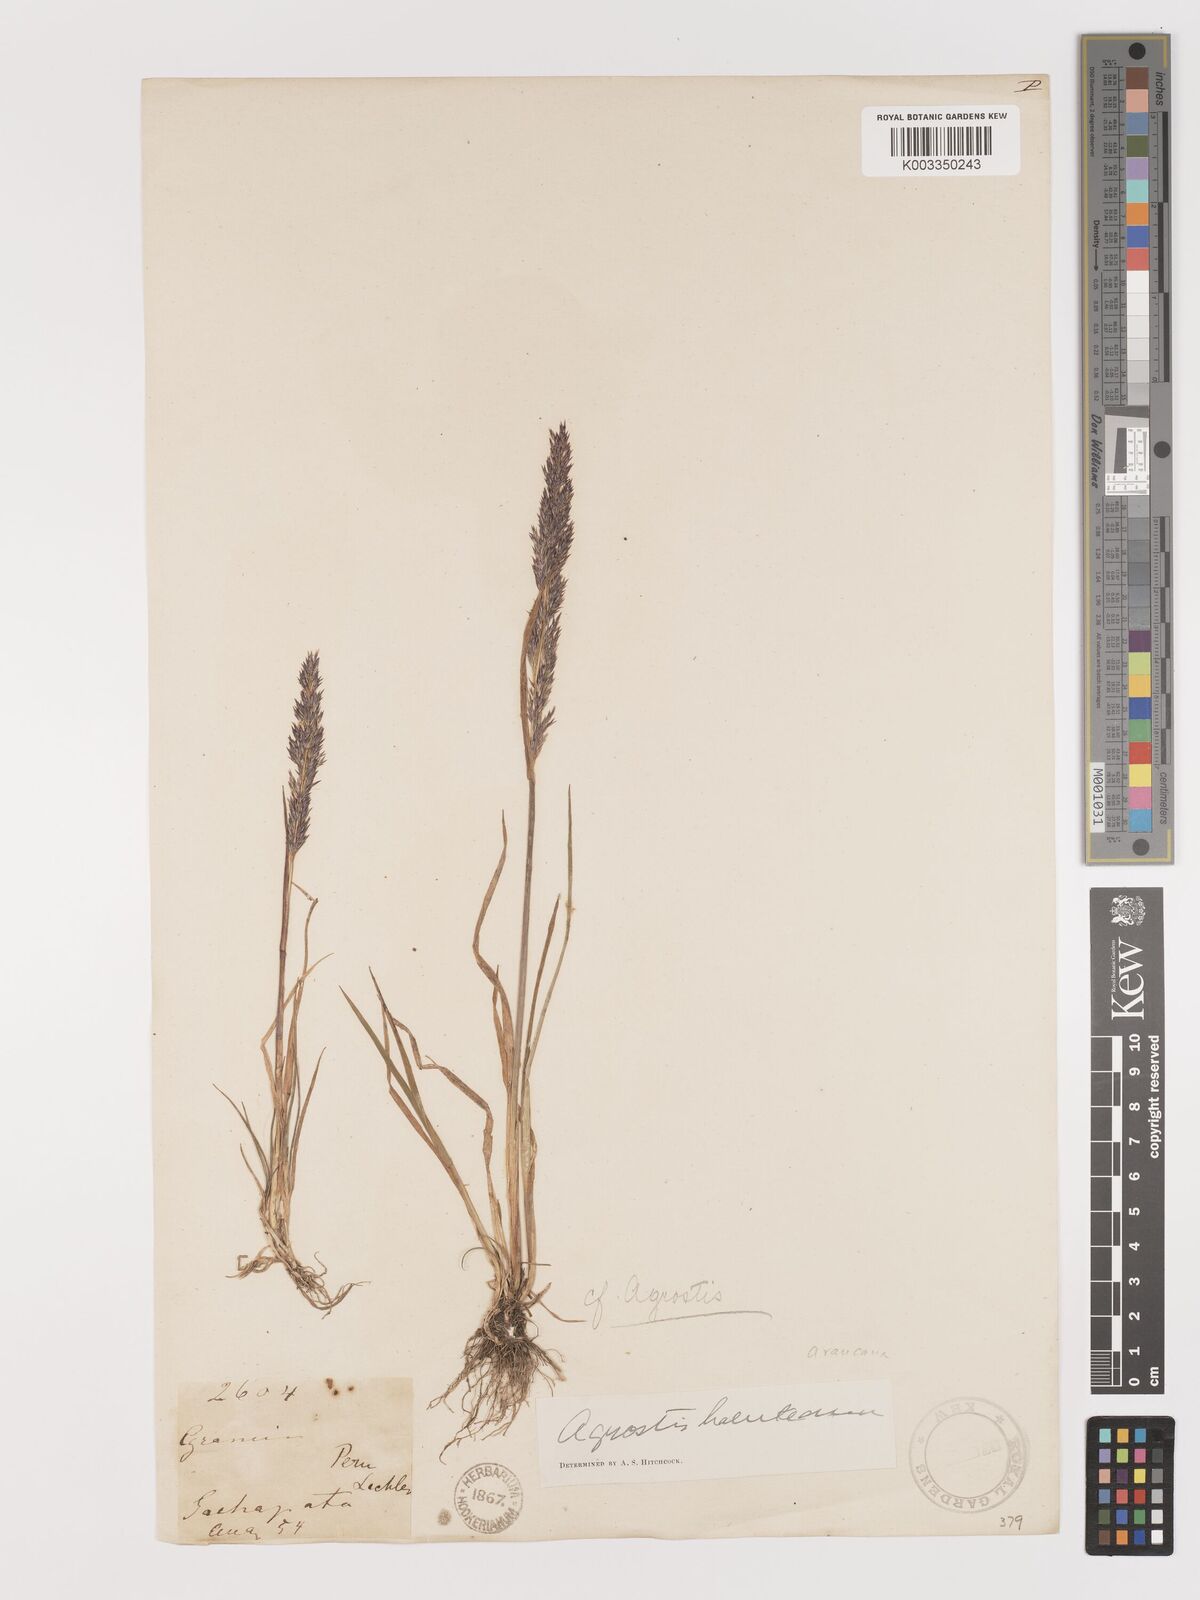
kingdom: Plantae
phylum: Tracheophyta
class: Liliopsida
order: Poales
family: Poaceae
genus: Agrostis
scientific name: Agrostis
